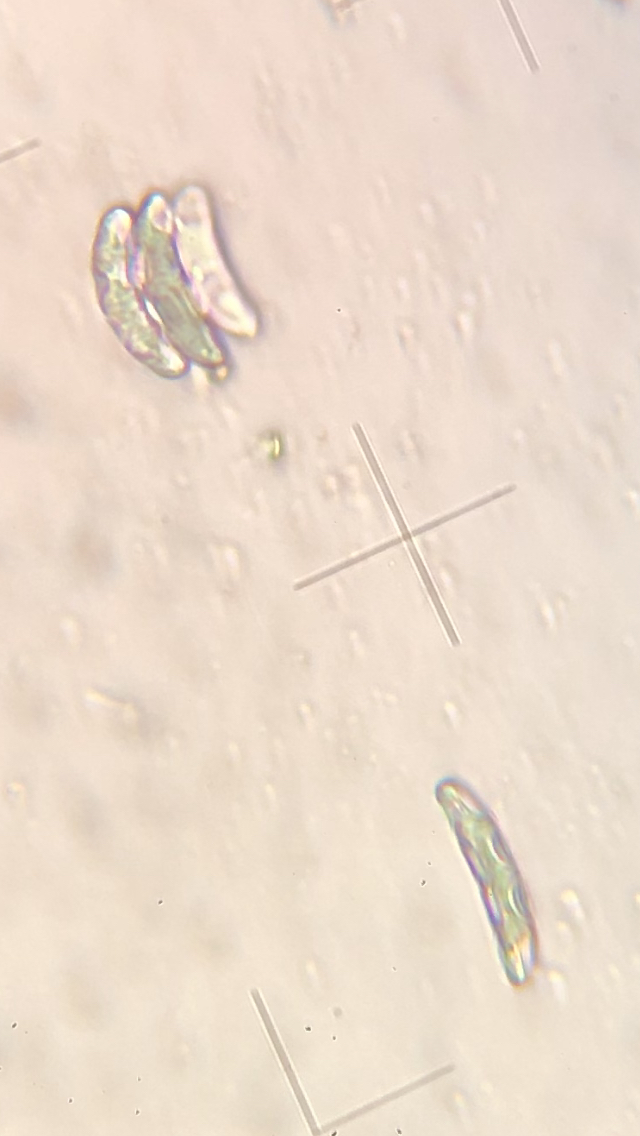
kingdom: Fungi
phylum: Ascomycota
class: Sordariomycetes
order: Xylariales
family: Diatrypaceae
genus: Diatrypella
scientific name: Diatrypella favacea
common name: Birch blackhead
